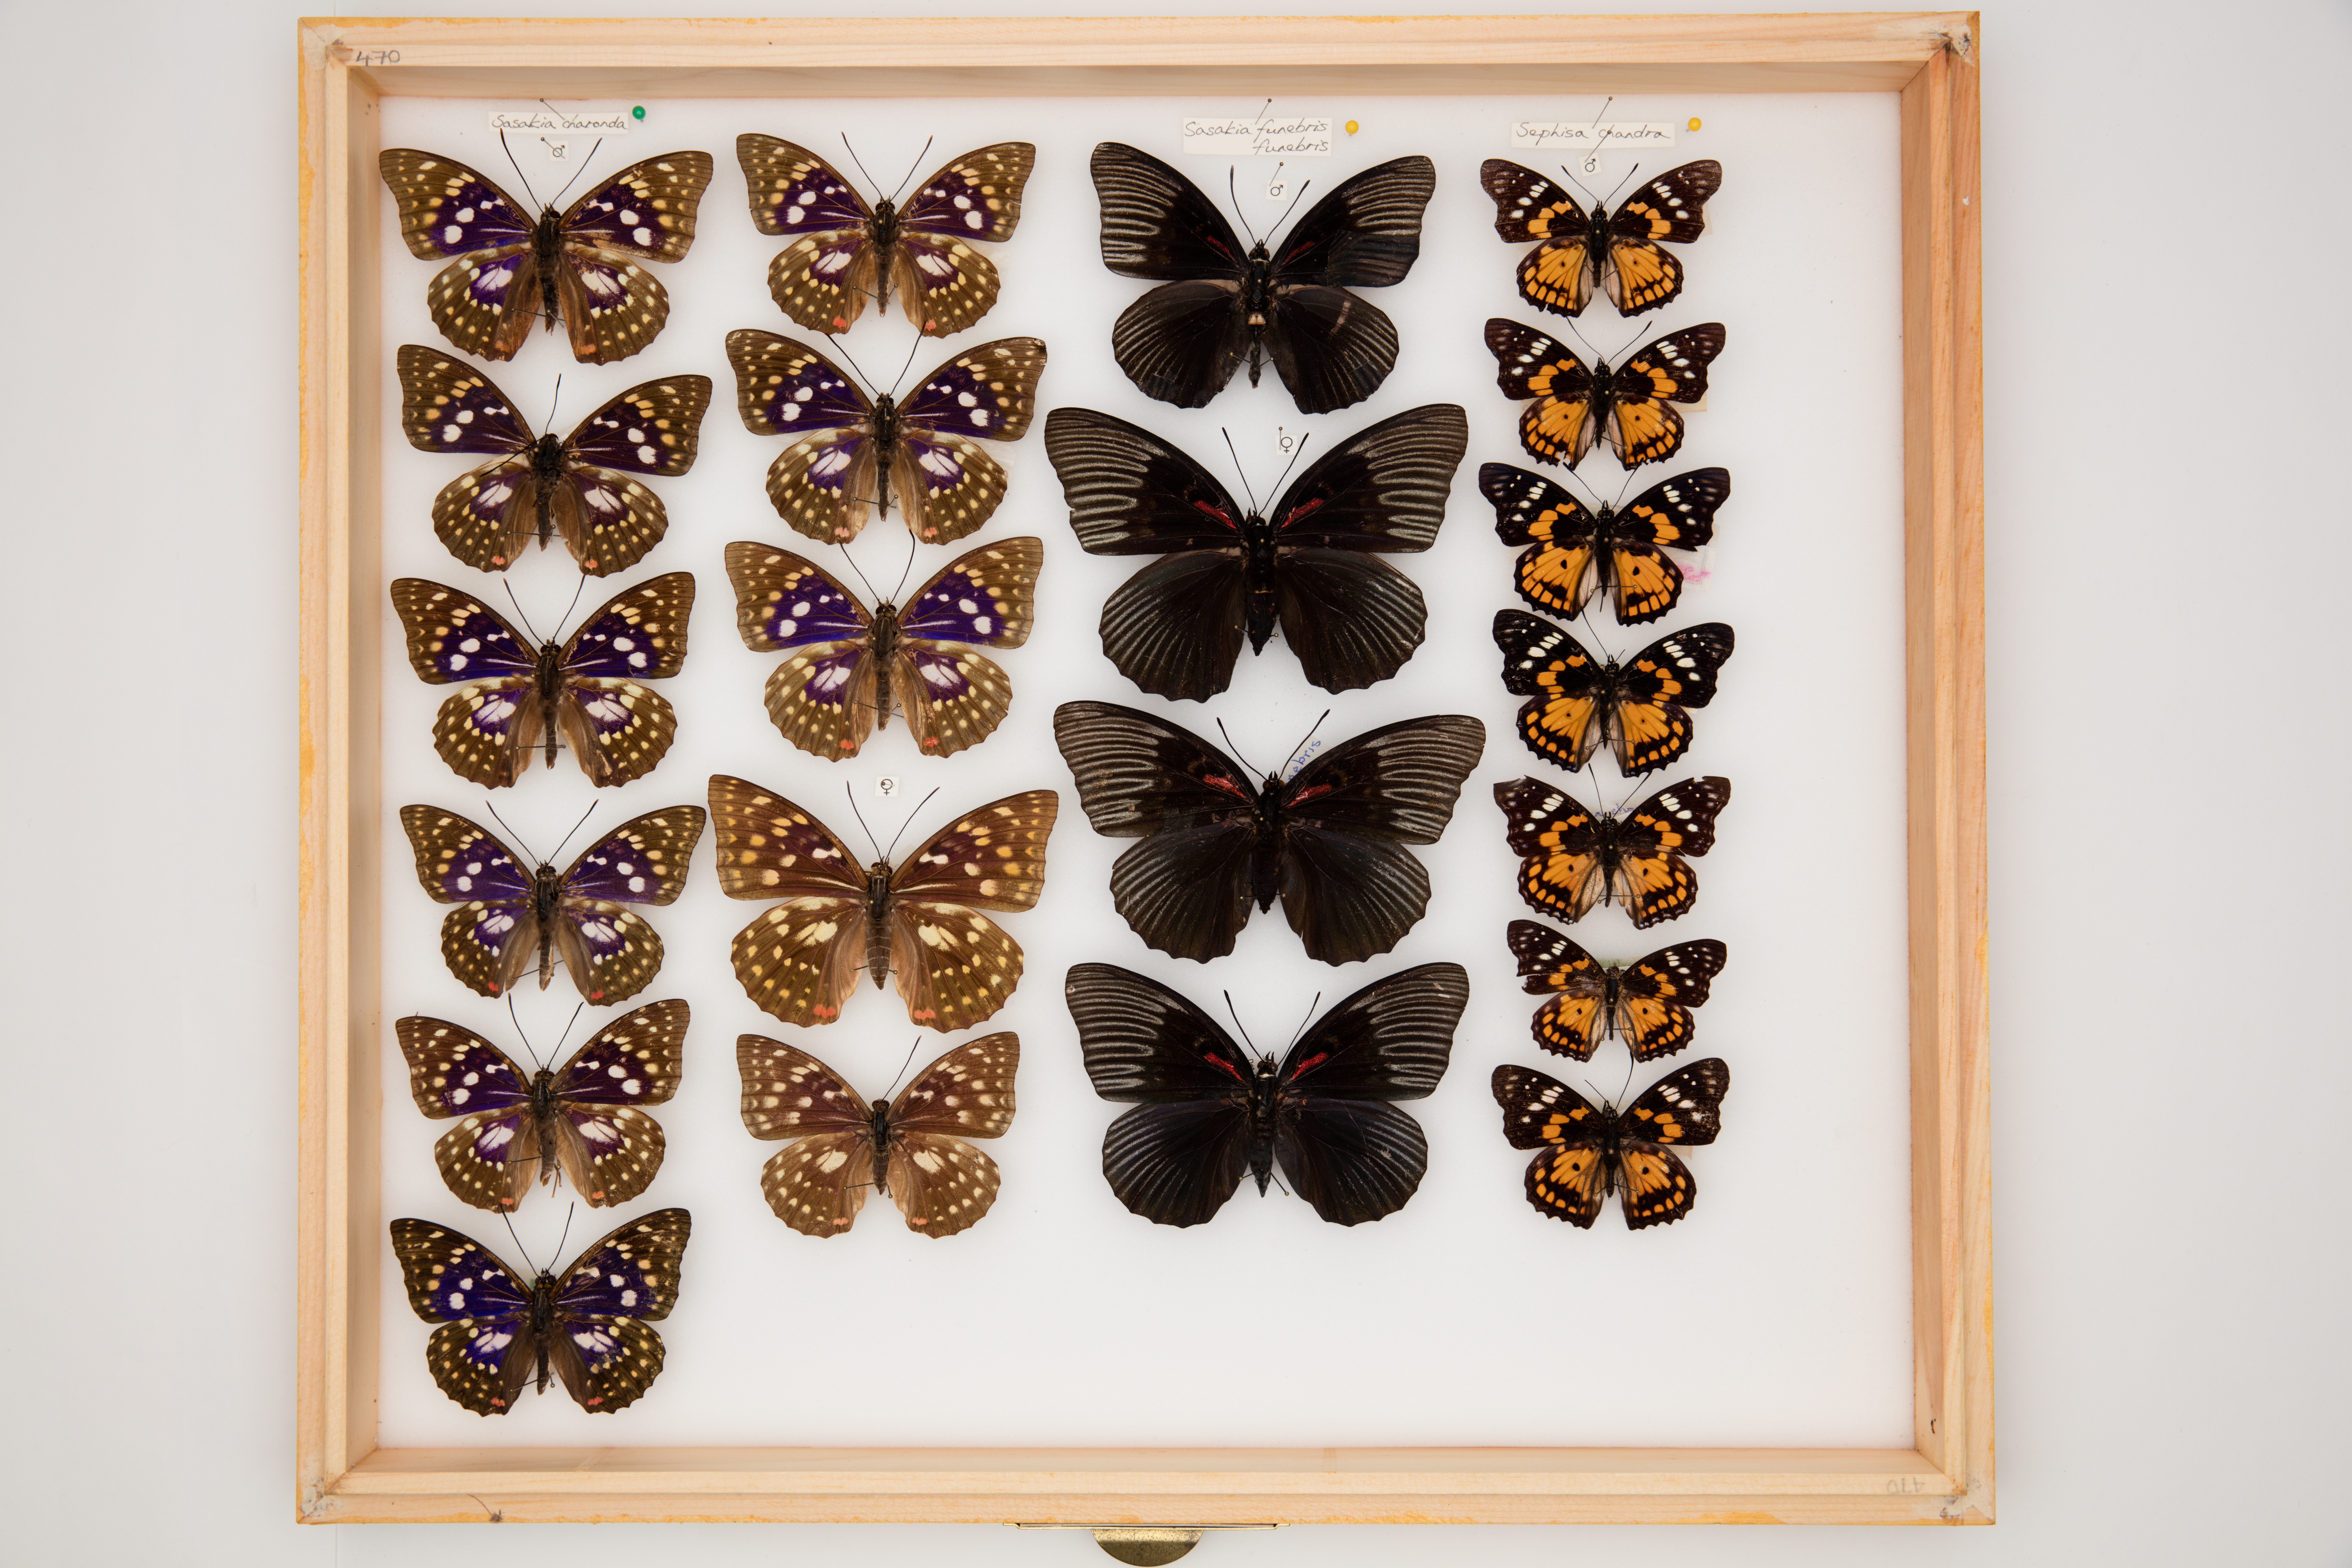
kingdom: Animalia
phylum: Arthropoda
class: Insecta
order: Lepidoptera
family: Nymphalidae
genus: Sephisa
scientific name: Sephisa chandra
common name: Eastern courtier
